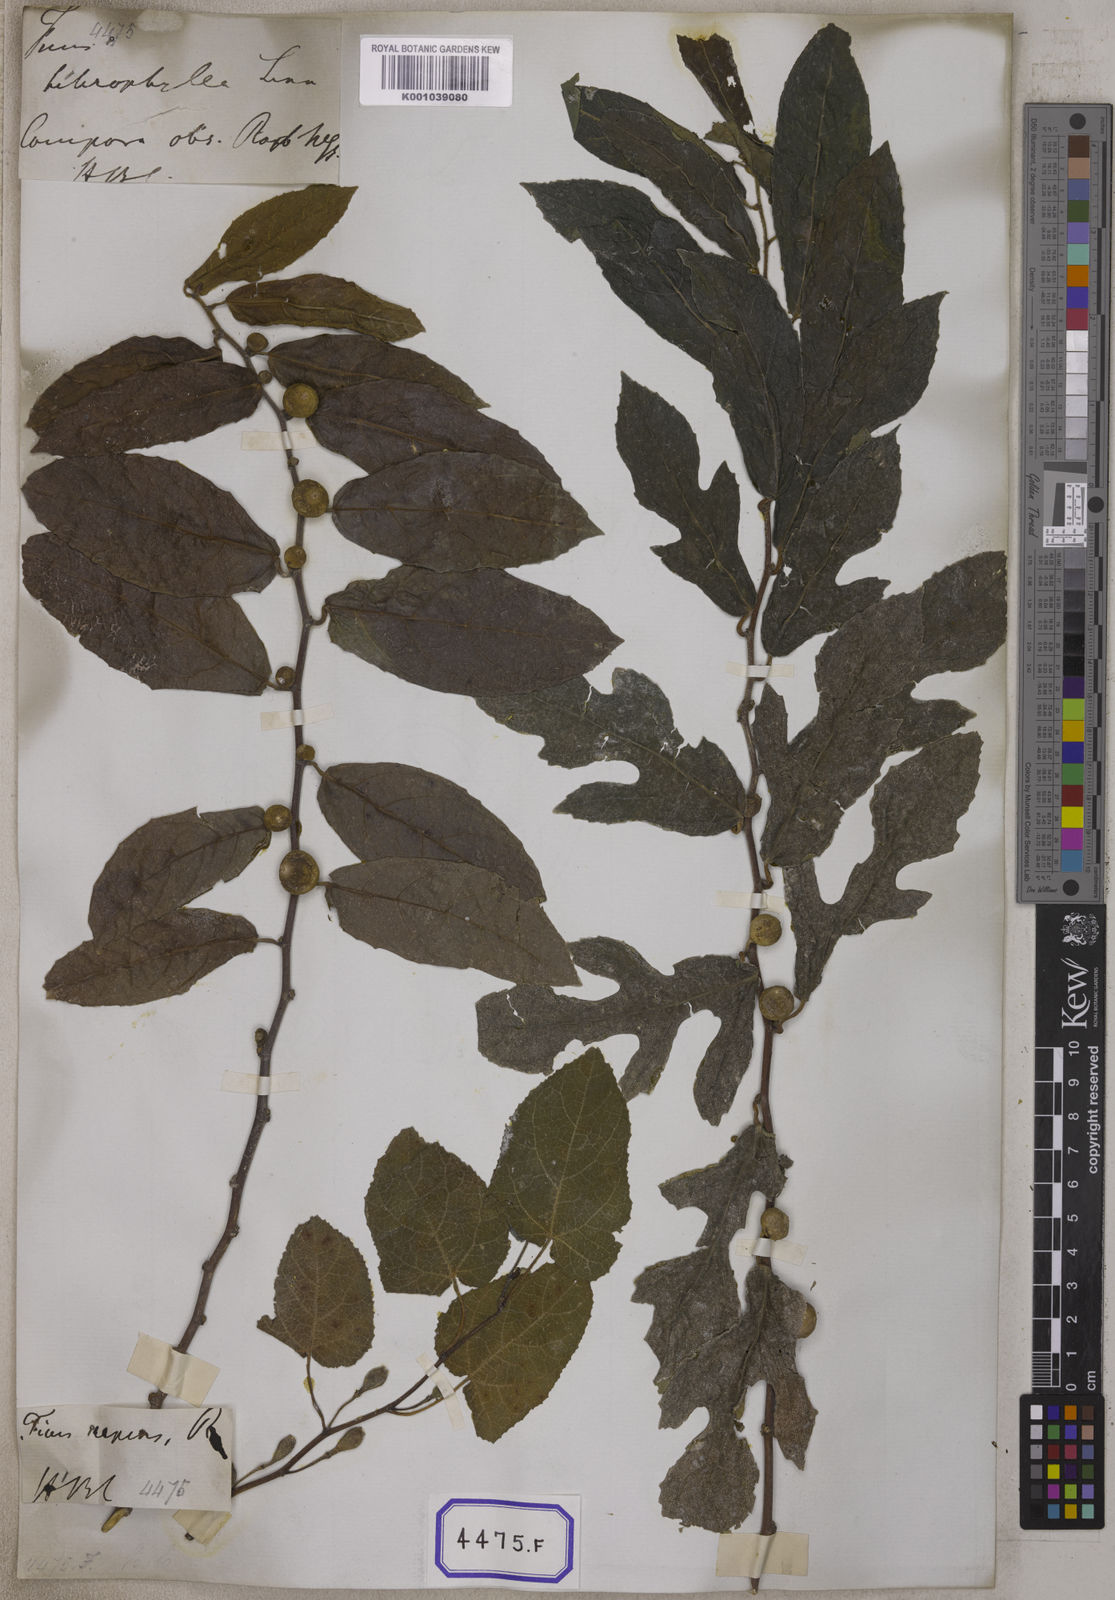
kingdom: Plantae
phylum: Tracheophyta
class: Magnoliopsida
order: Rosales
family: Moraceae
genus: Ficus
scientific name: Ficus
